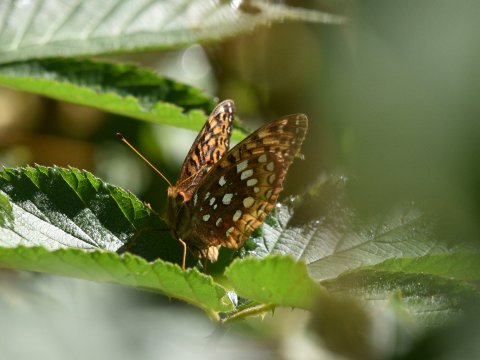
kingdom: Animalia
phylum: Arthropoda
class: Insecta
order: Lepidoptera
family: Nymphalidae
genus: Speyeria
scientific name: Speyeria cybele
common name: Great Spangled Fritillary
